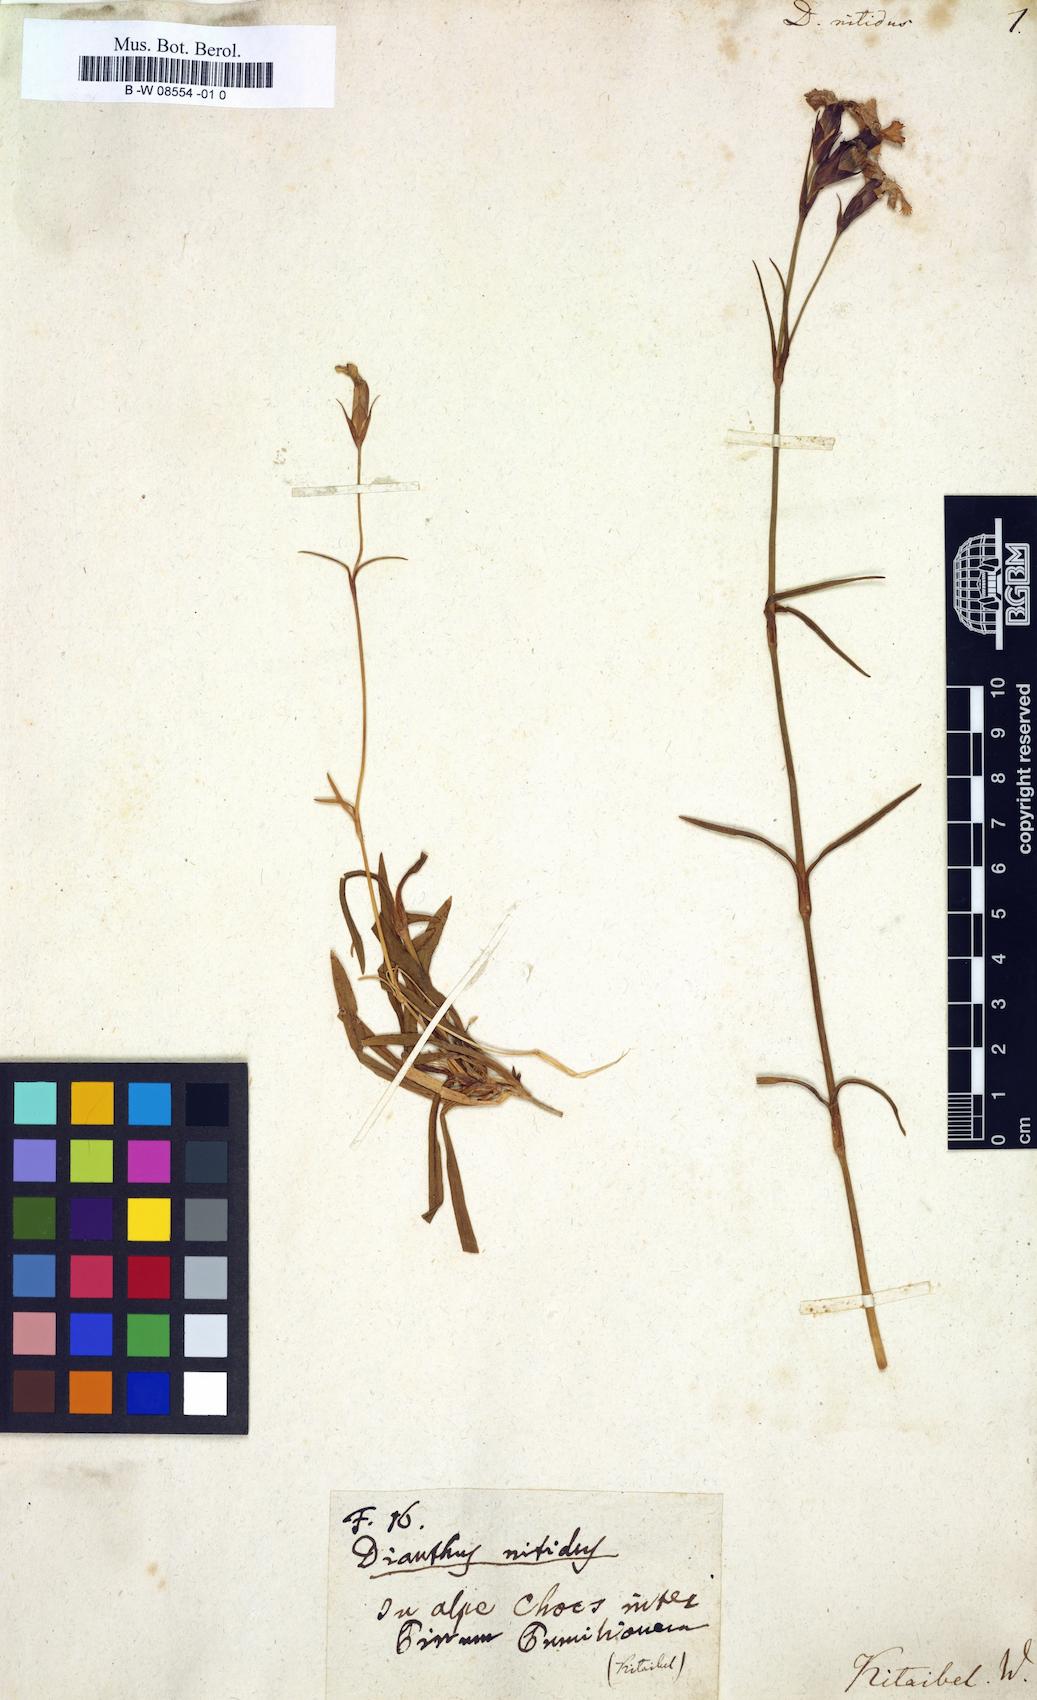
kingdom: Plantae
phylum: Tracheophyta
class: Magnoliopsida
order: Caryophyllales
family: Caryophyllaceae
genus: Dianthus
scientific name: Dianthus nitidus
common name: Carpathian glossy pink
